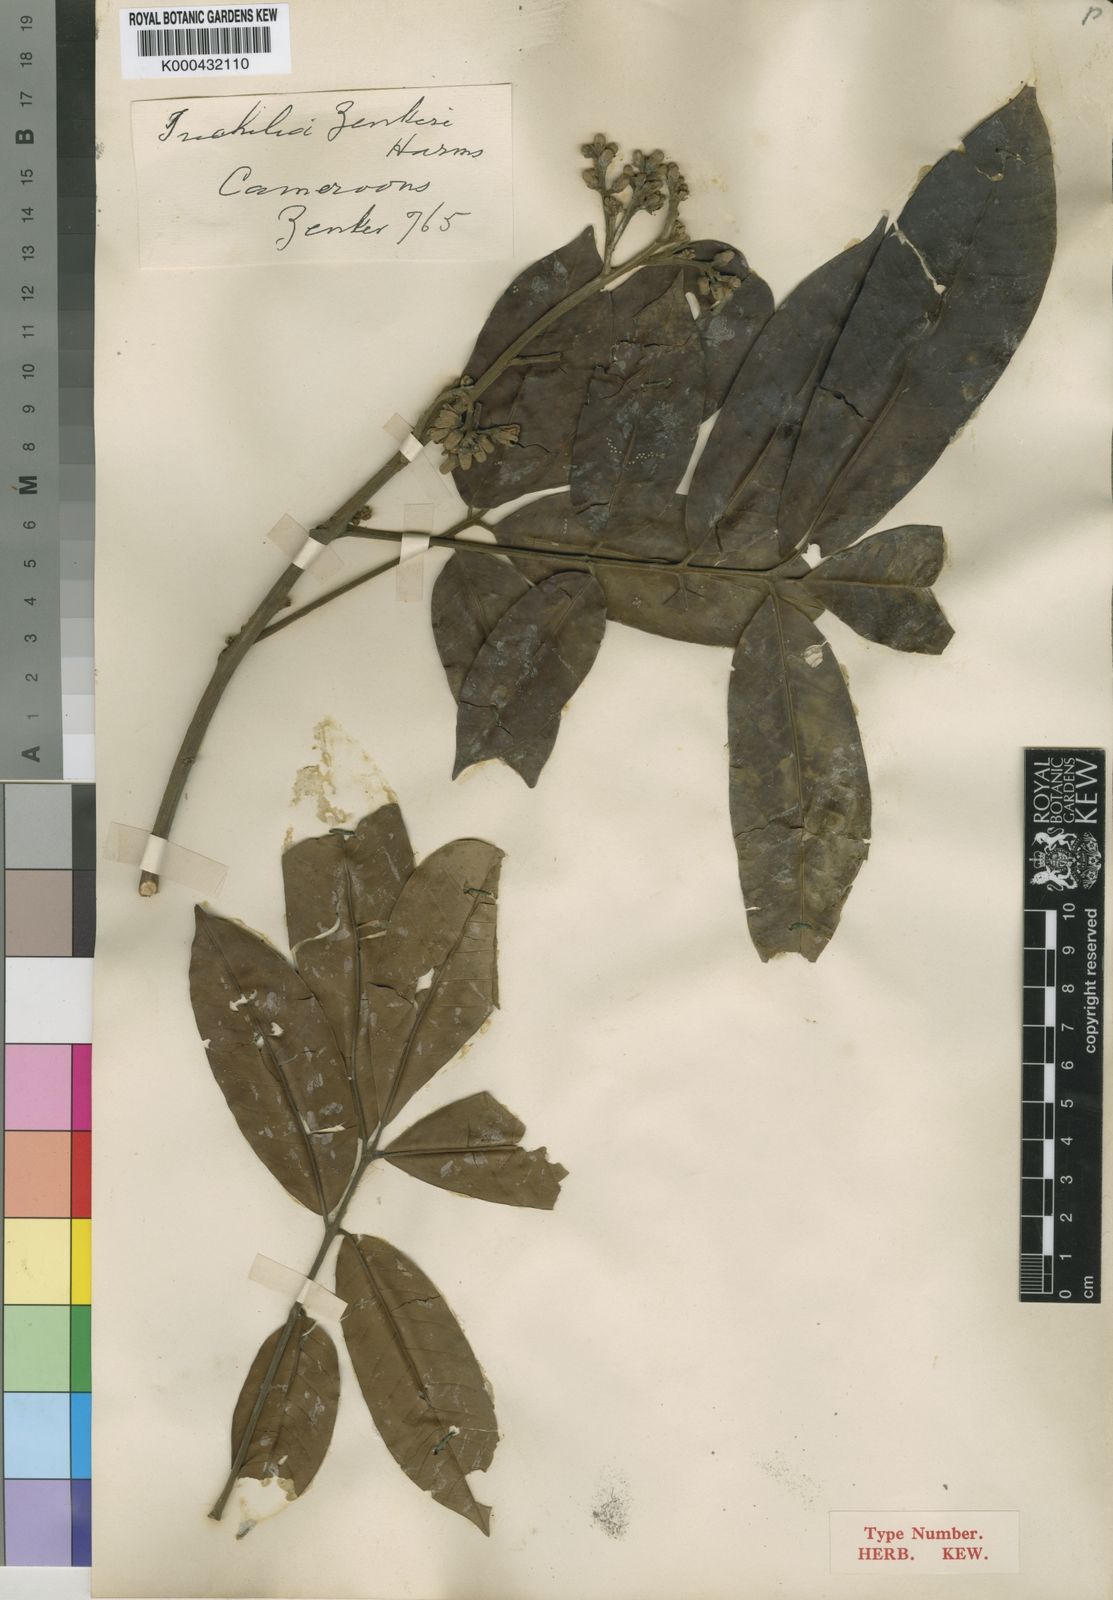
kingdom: Plantae
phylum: Tracheophyta
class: Magnoliopsida
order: Sapindales
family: Meliaceae
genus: Trichilia
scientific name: Trichilia monadelpha
